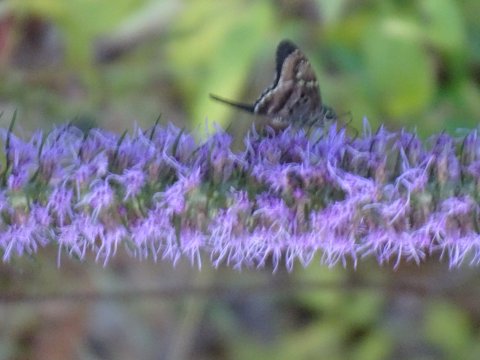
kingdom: Animalia
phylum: Arthropoda
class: Insecta
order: Lepidoptera
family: Hesperiidae
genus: Urbanus
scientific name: Urbanus proteus
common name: Long-tailed Skipper
